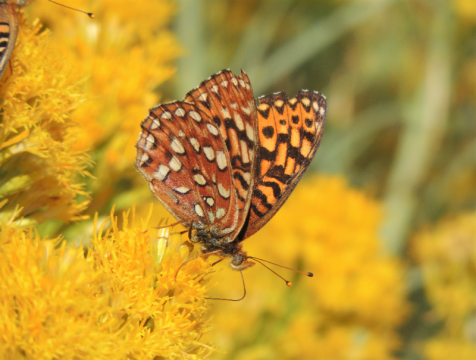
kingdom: Animalia
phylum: Arthropoda
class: Insecta
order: Lepidoptera
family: Nymphalidae
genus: Speyeria
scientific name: Speyeria hydaspe
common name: Hydaspe Fritillary
